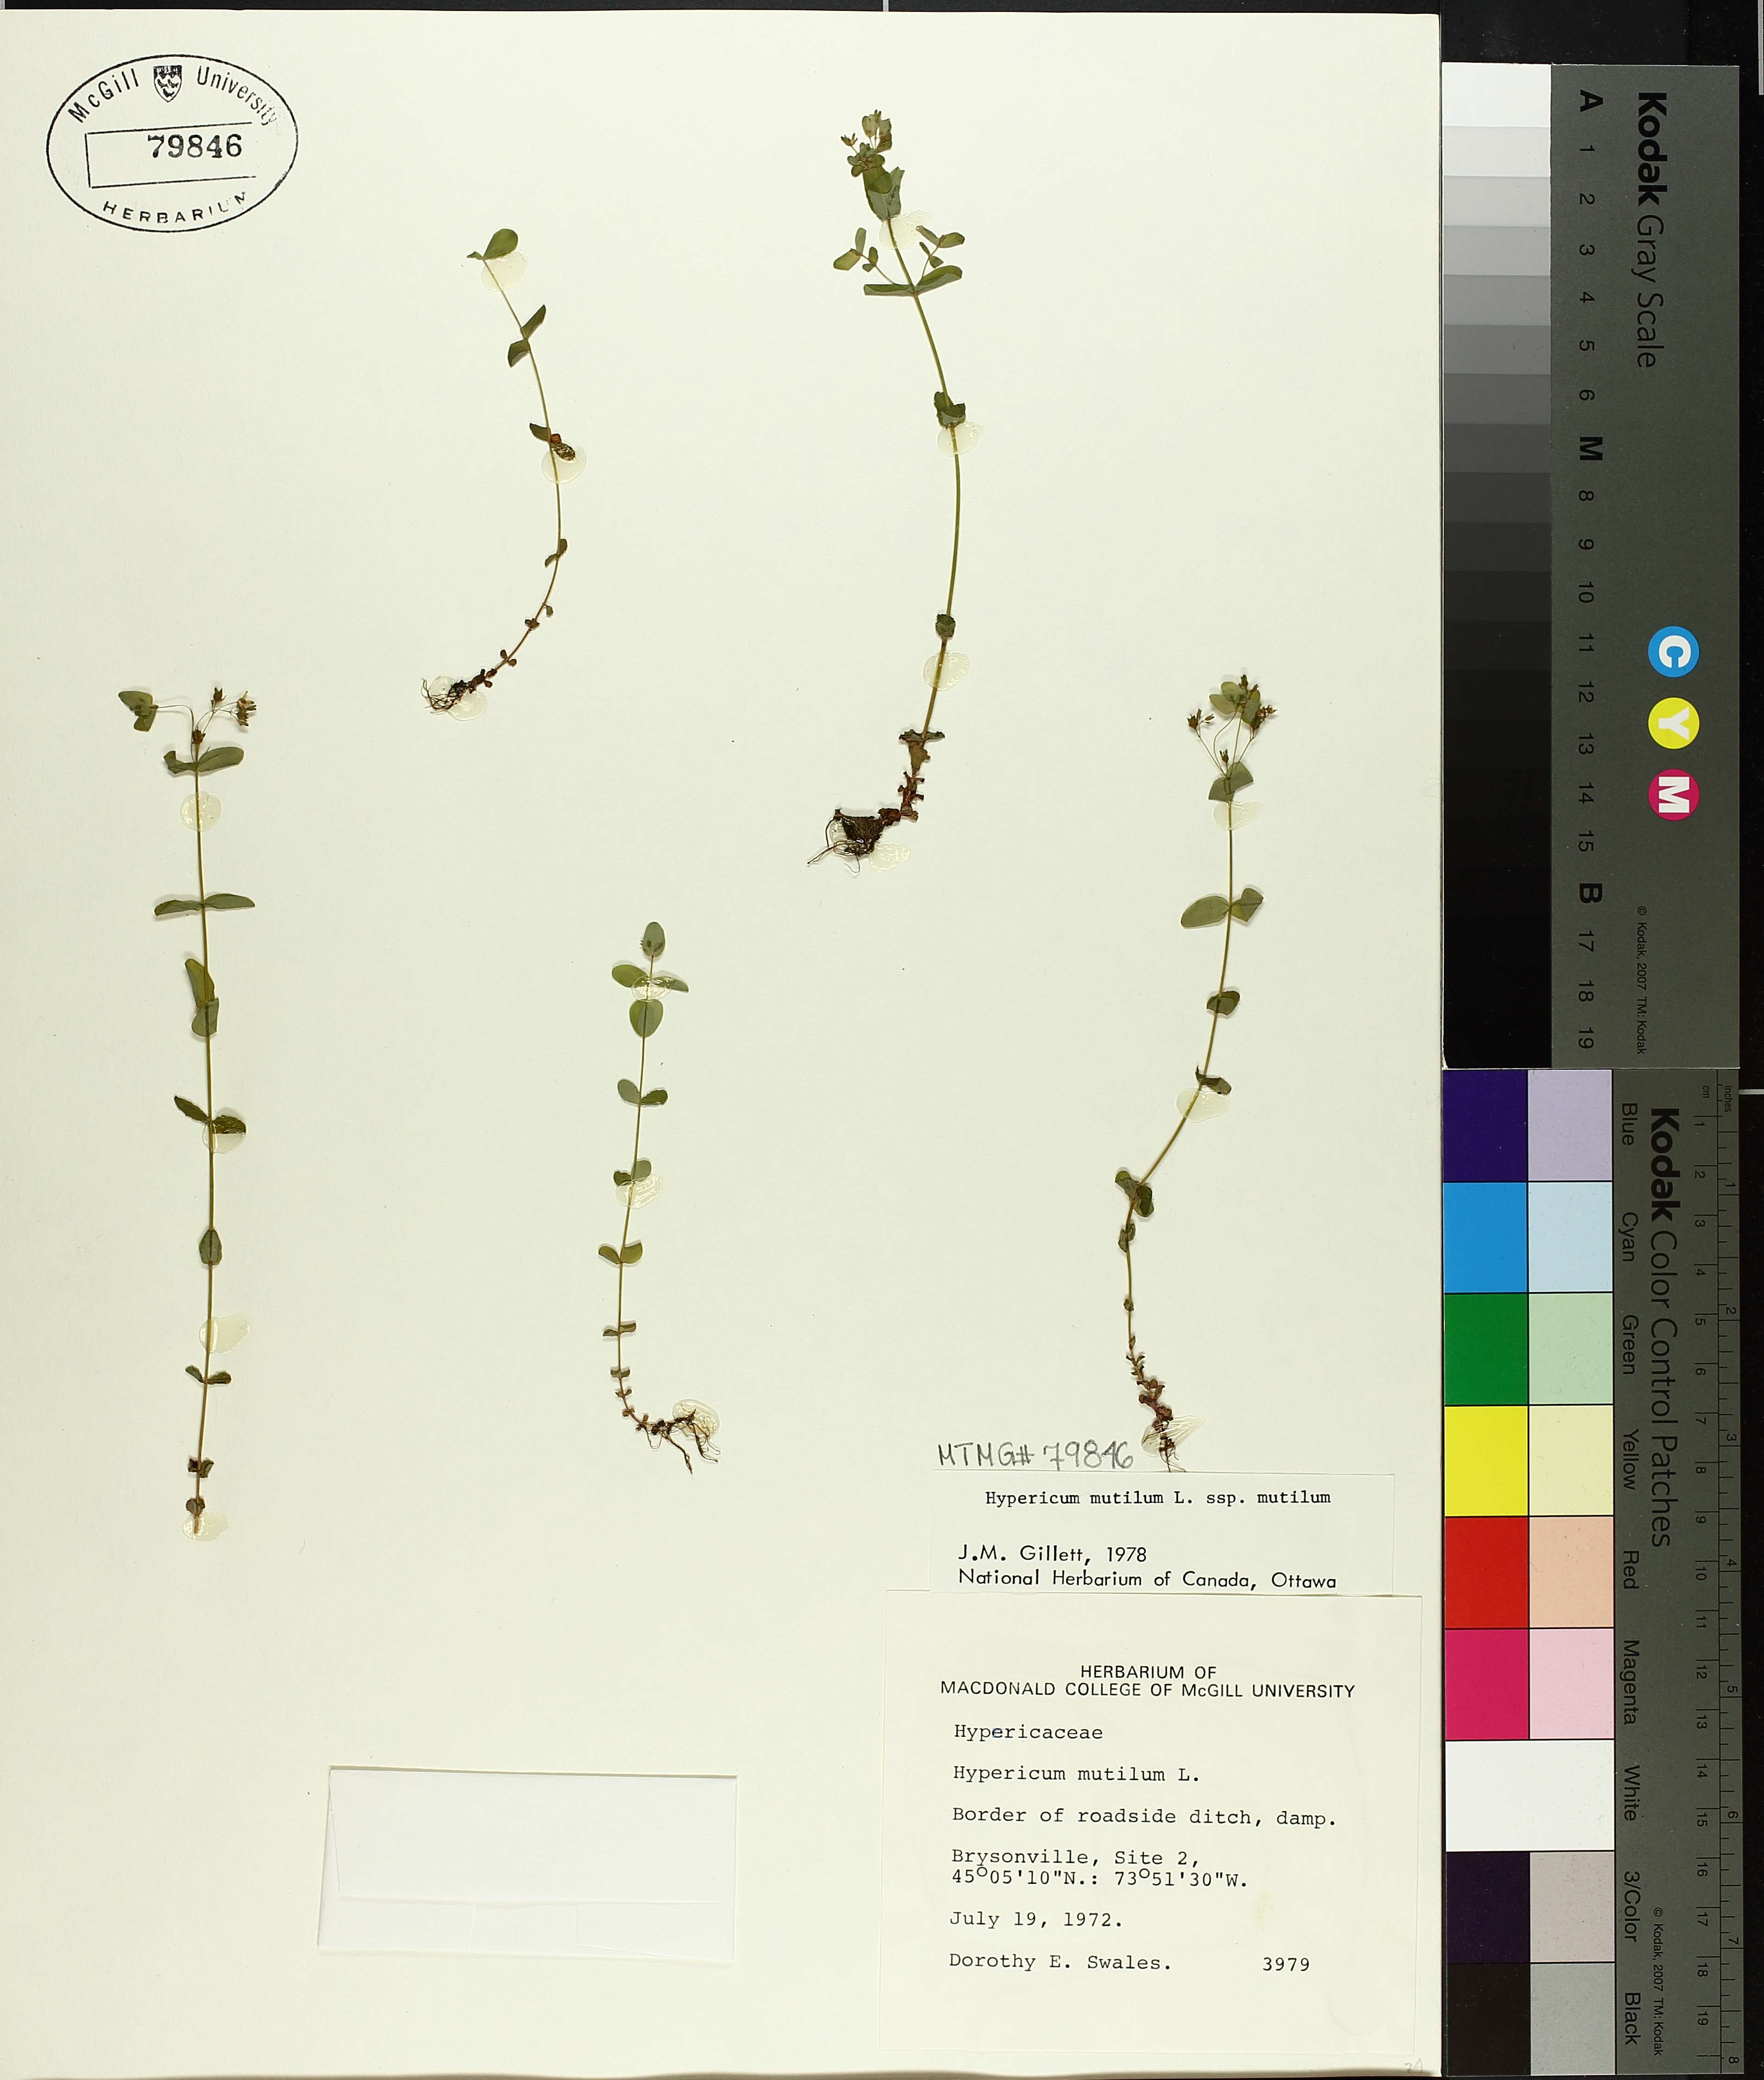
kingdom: Plantae
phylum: Tracheophyta
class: Magnoliopsida
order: Malpighiales
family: Hypericaceae
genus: Hypericum
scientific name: Hypericum mutilum
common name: Dwarf st. john's-wort
